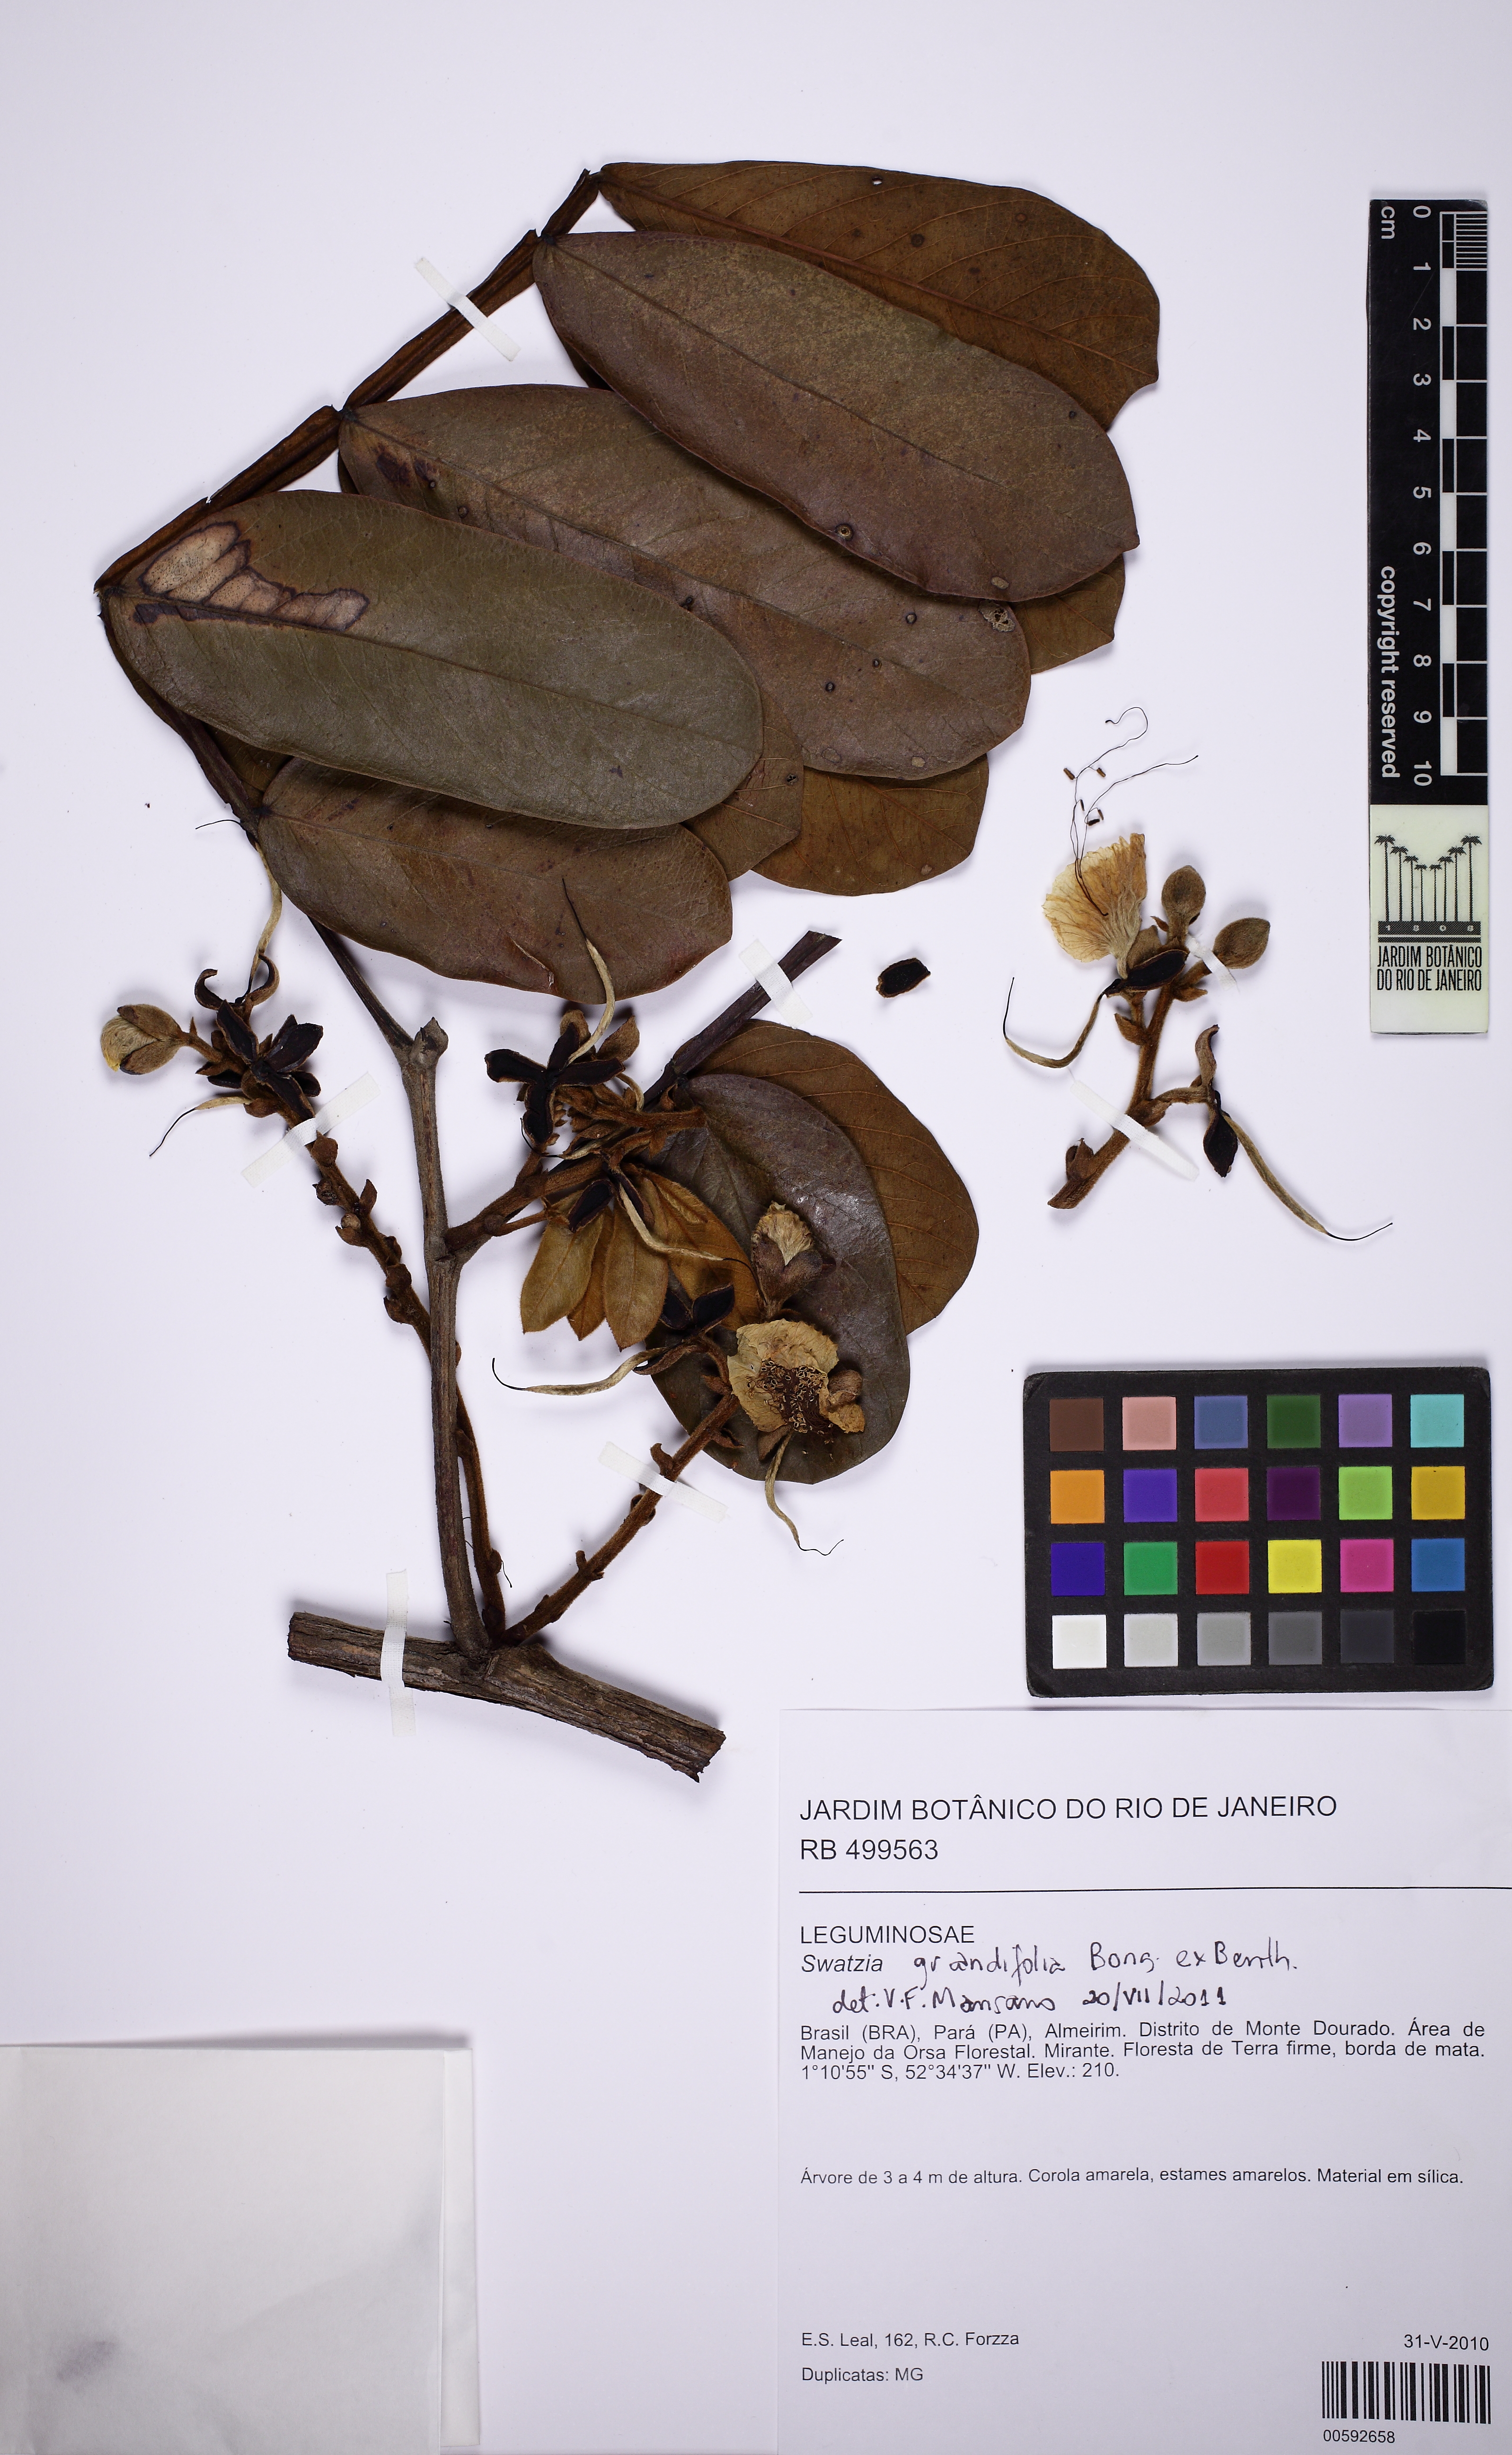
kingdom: Plantae
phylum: Tracheophyta
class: Magnoliopsida
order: Fabales
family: Fabaceae
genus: Swartzia
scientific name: Swartzia grandifolia
